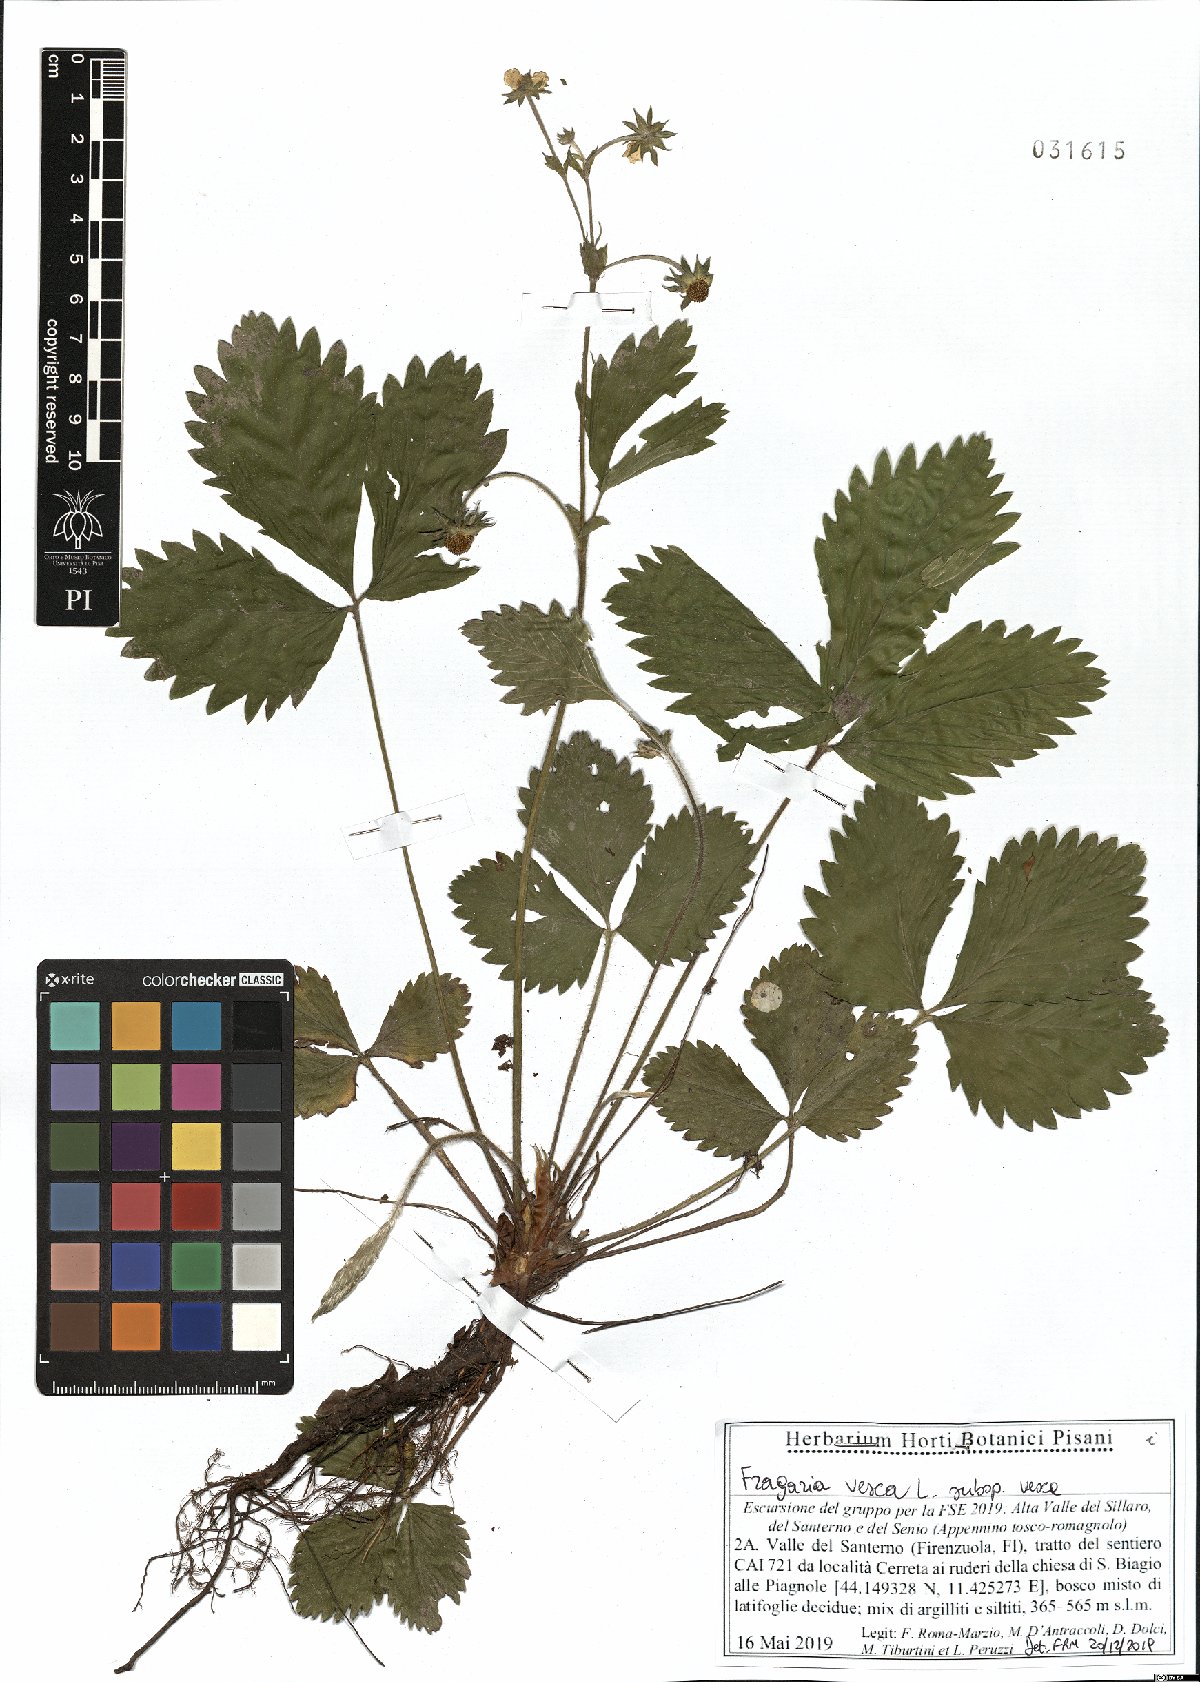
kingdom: Plantae
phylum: Tracheophyta
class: Magnoliopsida
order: Rosales
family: Rosaceae
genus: Fragaria
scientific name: Fragaria vesca
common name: Wild strawberry
